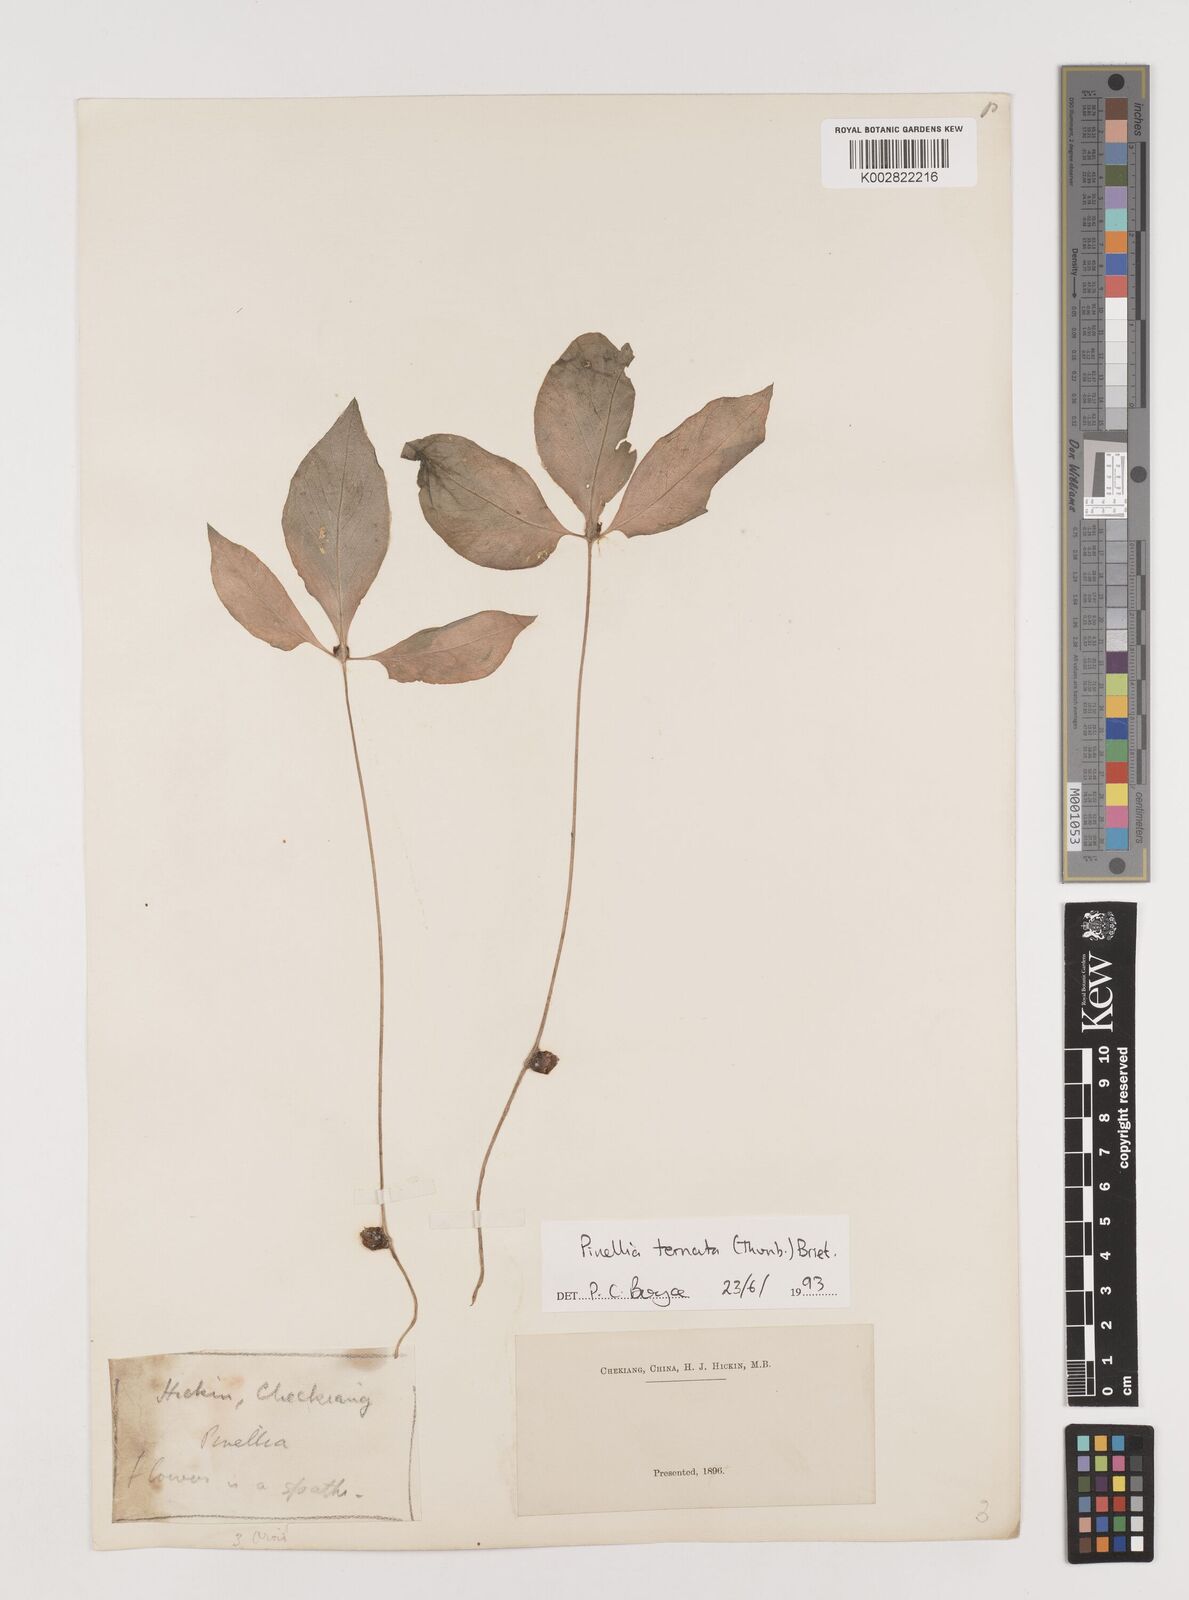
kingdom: Plantae
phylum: Tracheophyta
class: Liliopsida
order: Alismatales
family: Araceae
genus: Pinellia
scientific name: Pinellia ternata
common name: Pinellia
